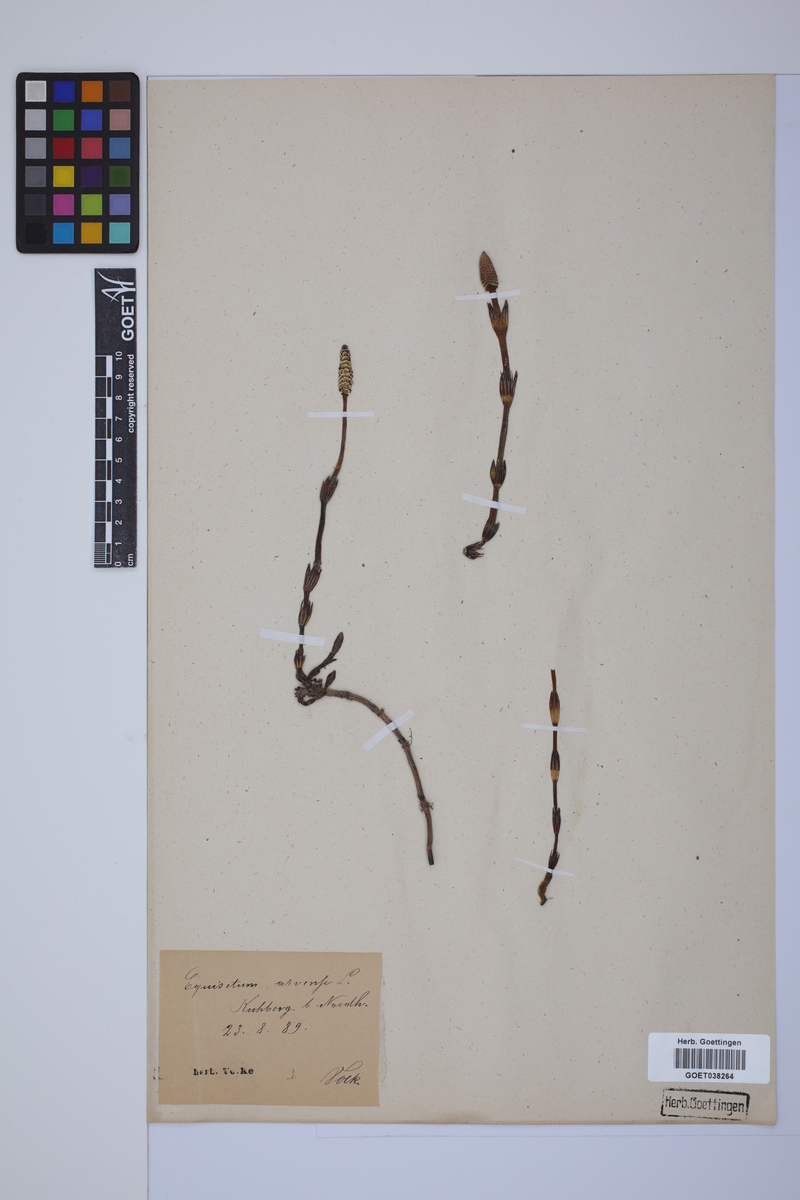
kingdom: Plantae
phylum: Tracheophyta
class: Polypodiopsida
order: Equisetales
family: Equisetaceae
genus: Equisetum
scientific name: Equisetum arvense
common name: Field horsetail
